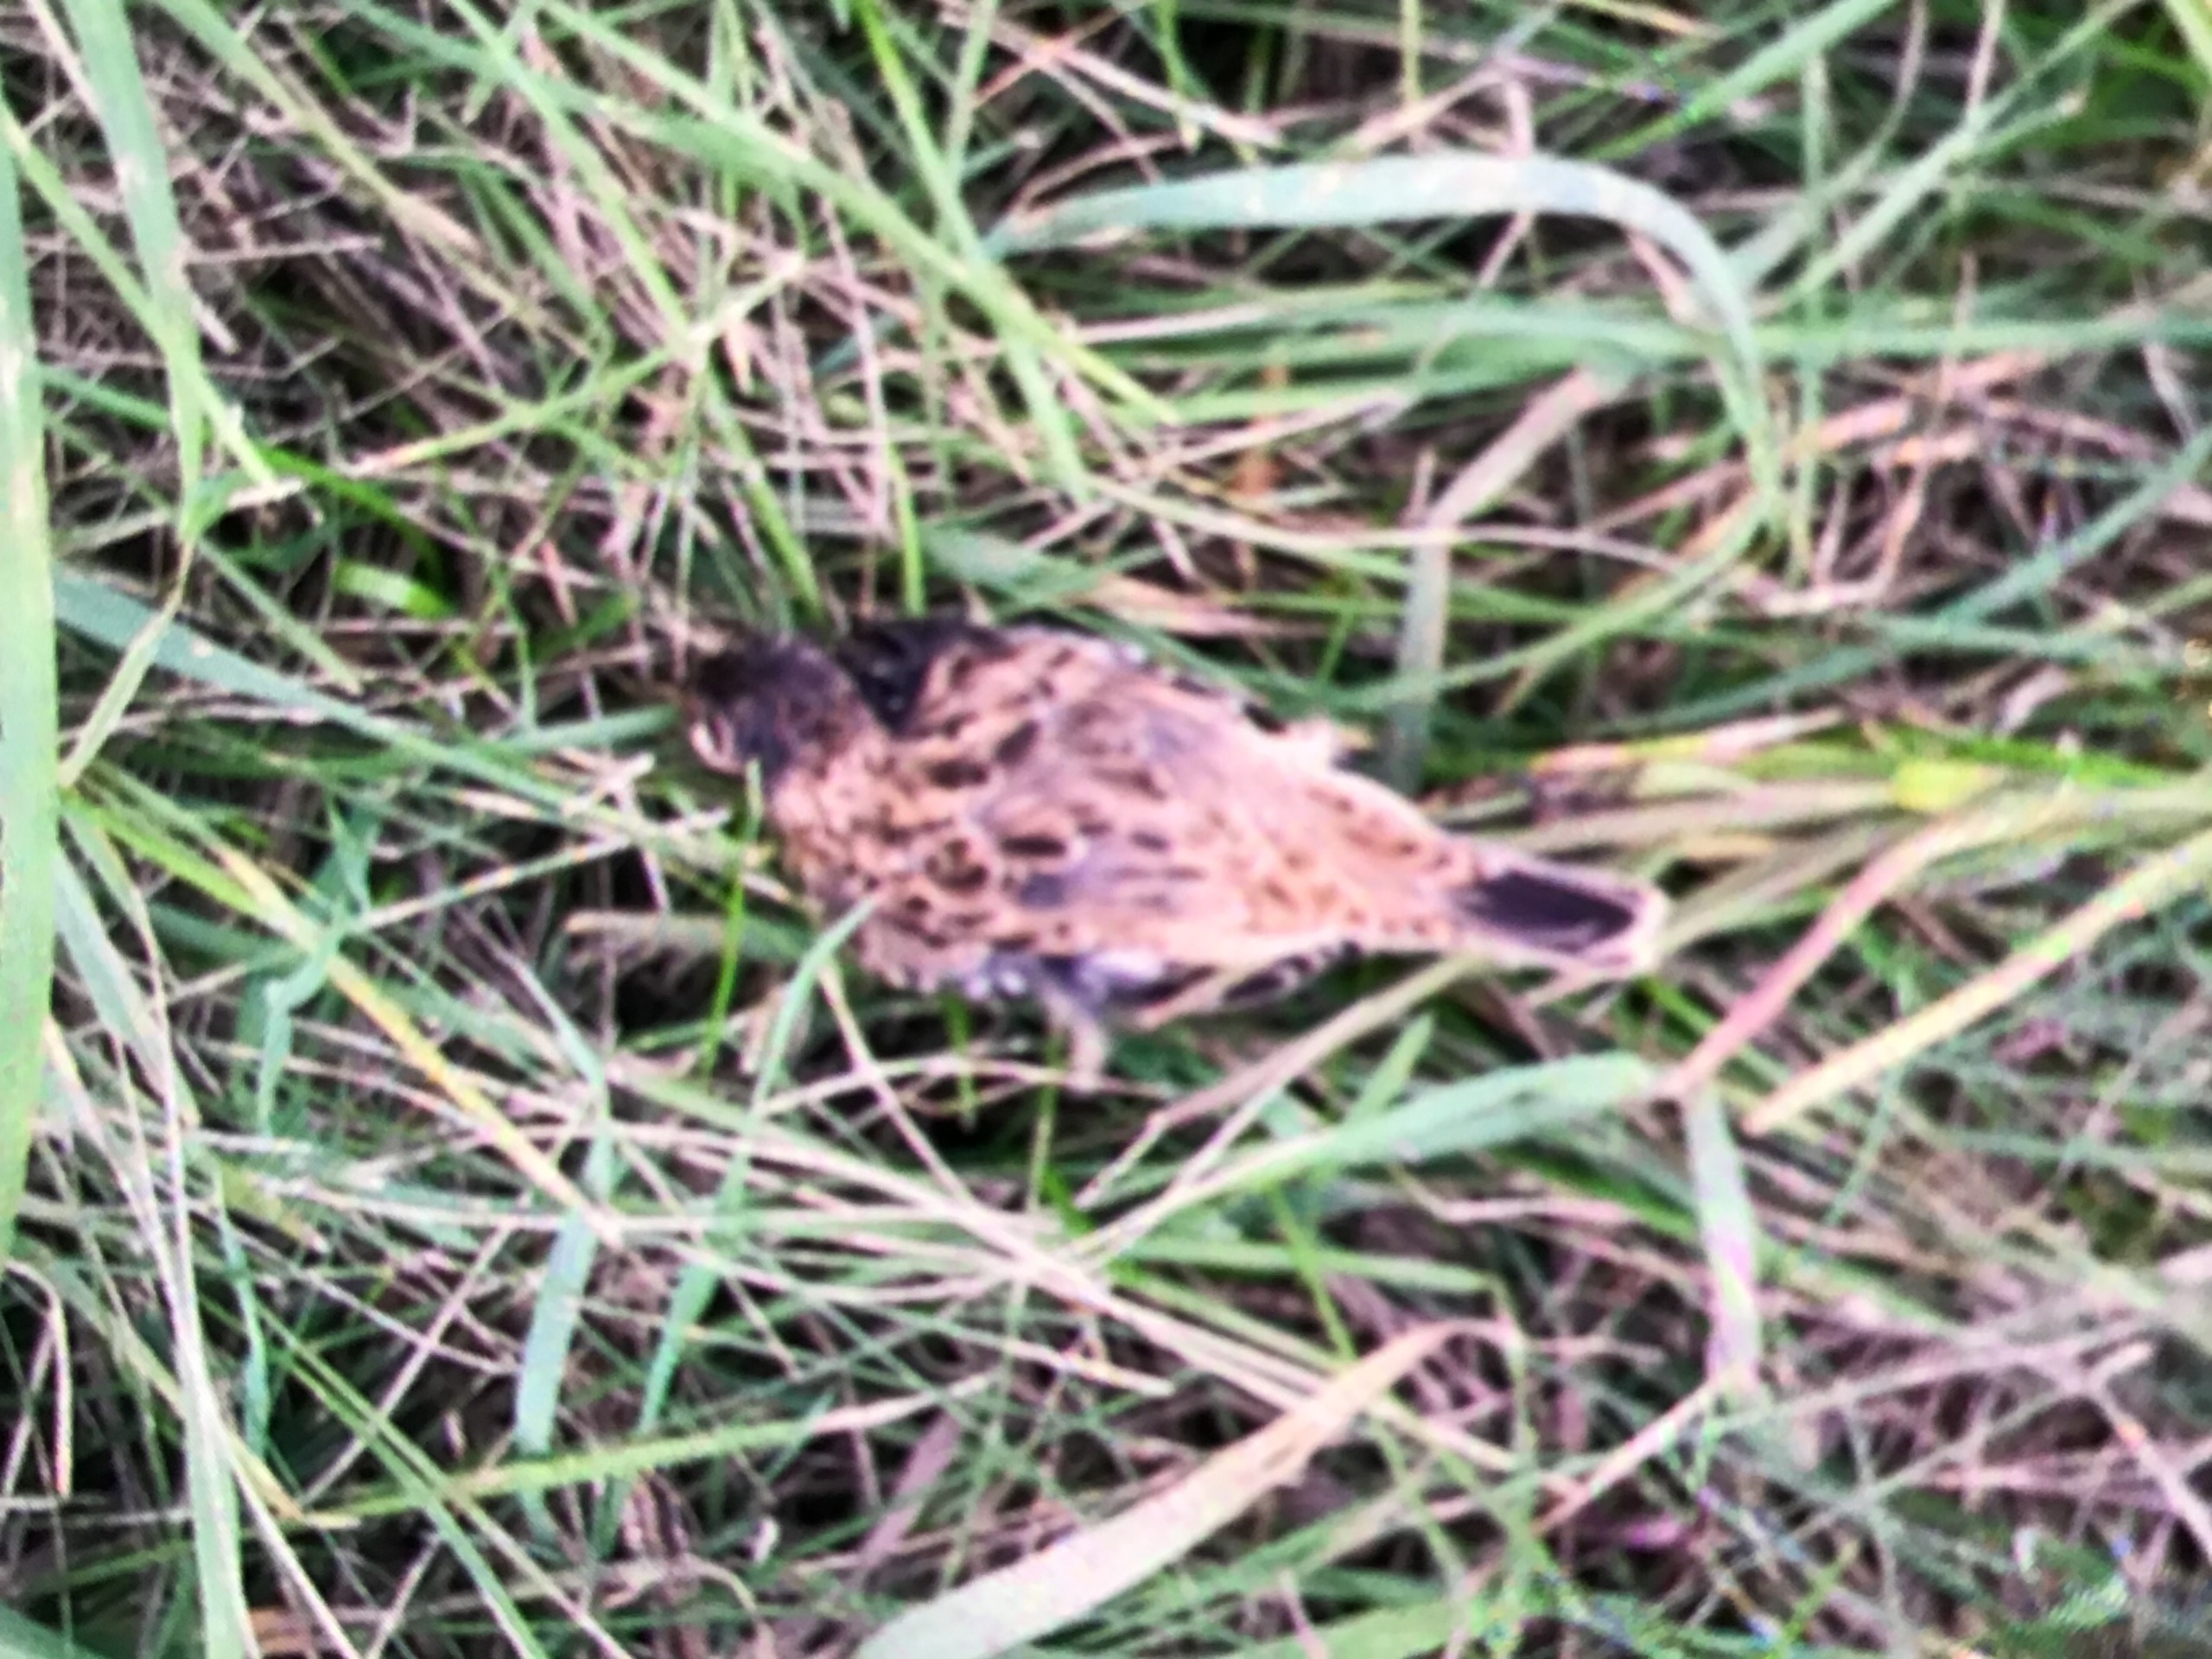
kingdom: Animalia
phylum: Chordata
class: Aves
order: Passeriformes
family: Muscicapidae
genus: Saxicola
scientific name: Saxicola rubetra
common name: Bynkefugl
